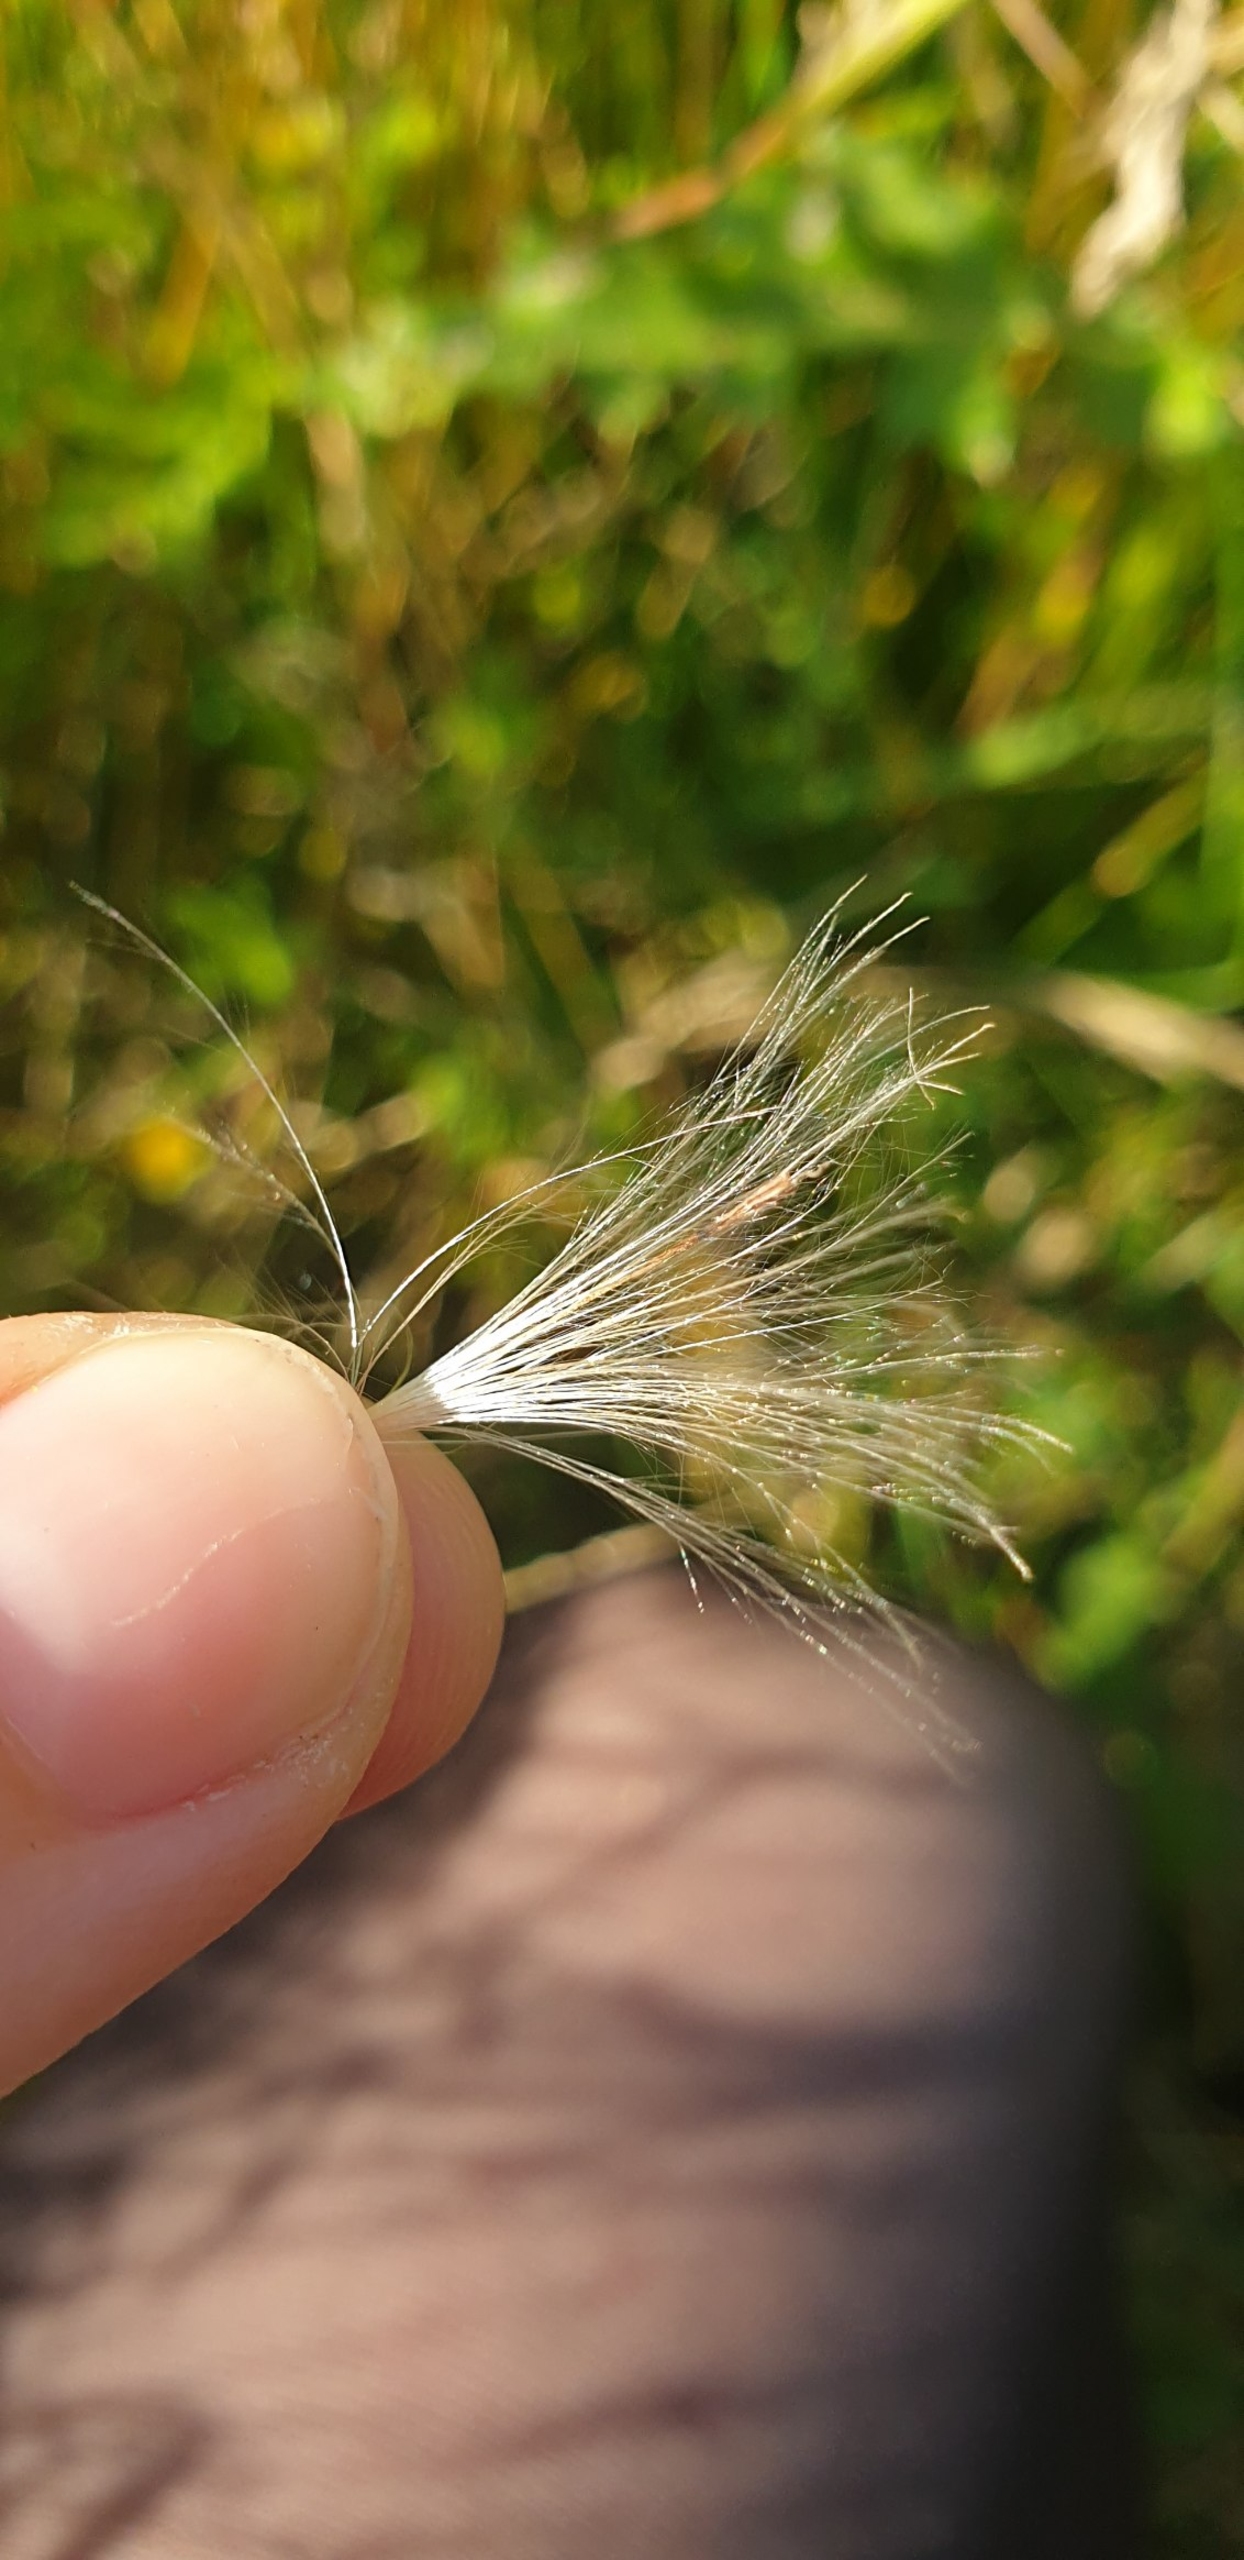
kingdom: Plantae
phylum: Tracheophyta
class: Magnoliopsida
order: Asterales
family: Asteraceae
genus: Cirsium
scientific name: Cirsium arvense
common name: Ager-tidsel
